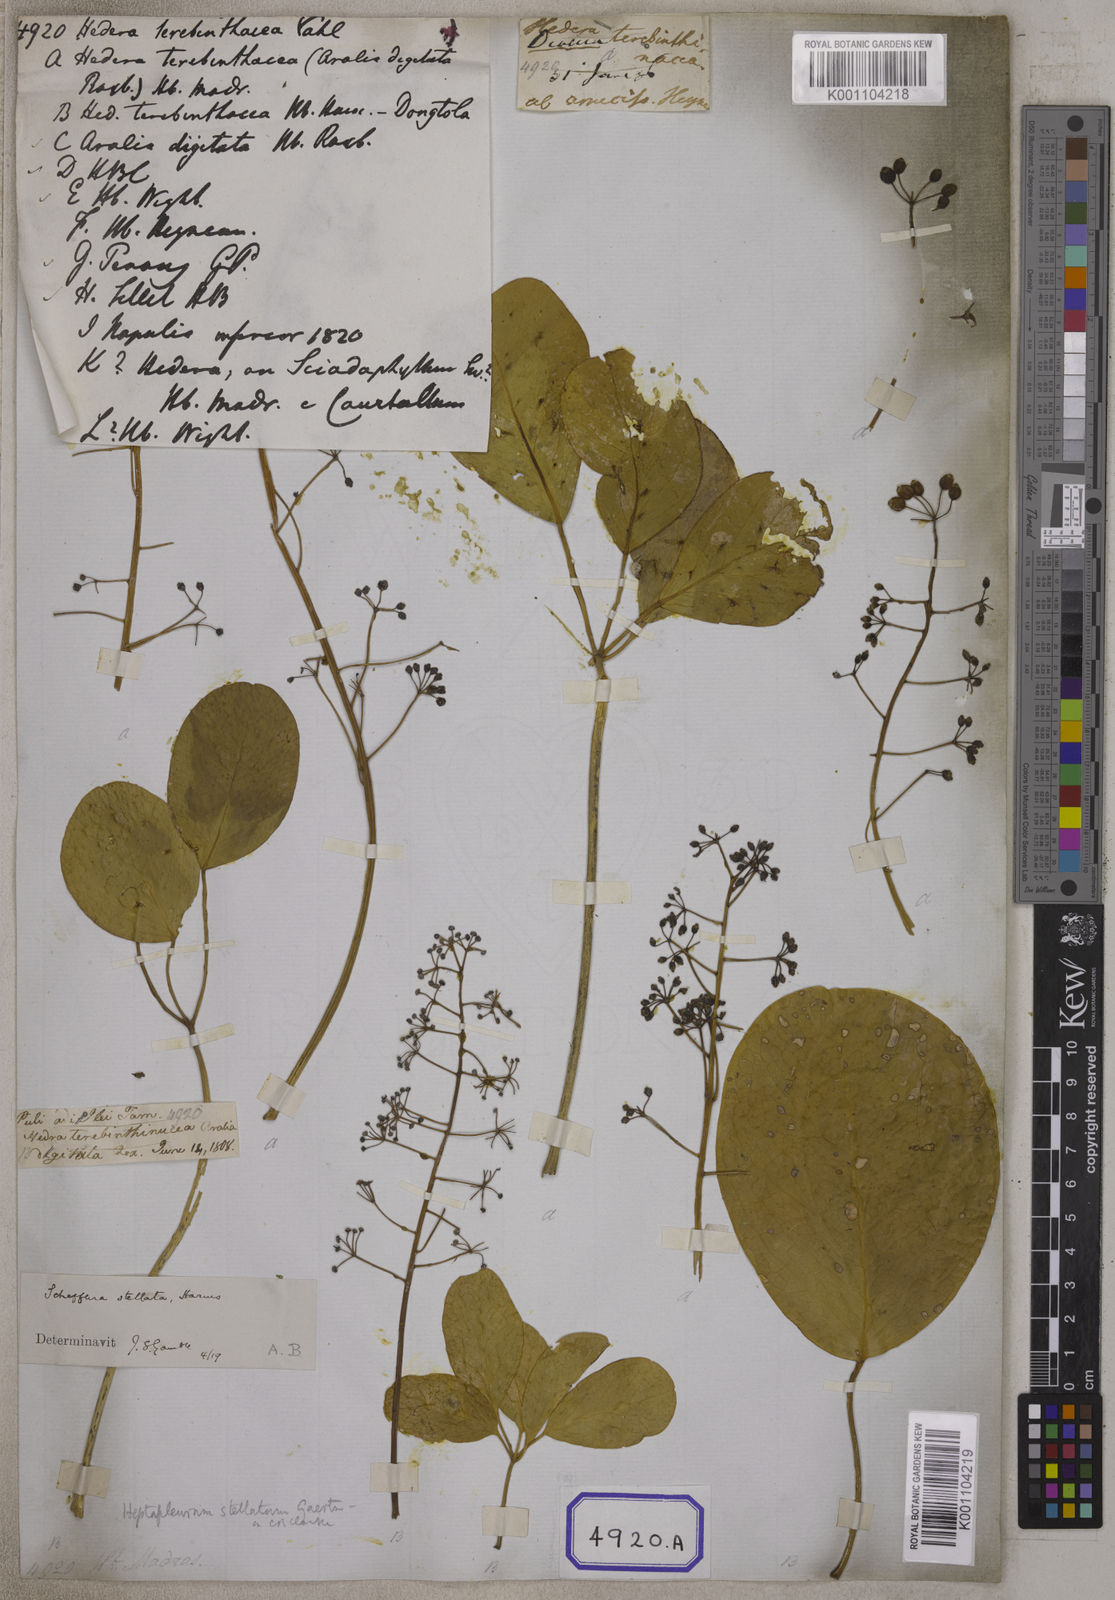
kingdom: Plantae
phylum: Tracheophyta
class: Magnoliopsida
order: Apiales
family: Araliaceae
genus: Hedera
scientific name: Hedera
